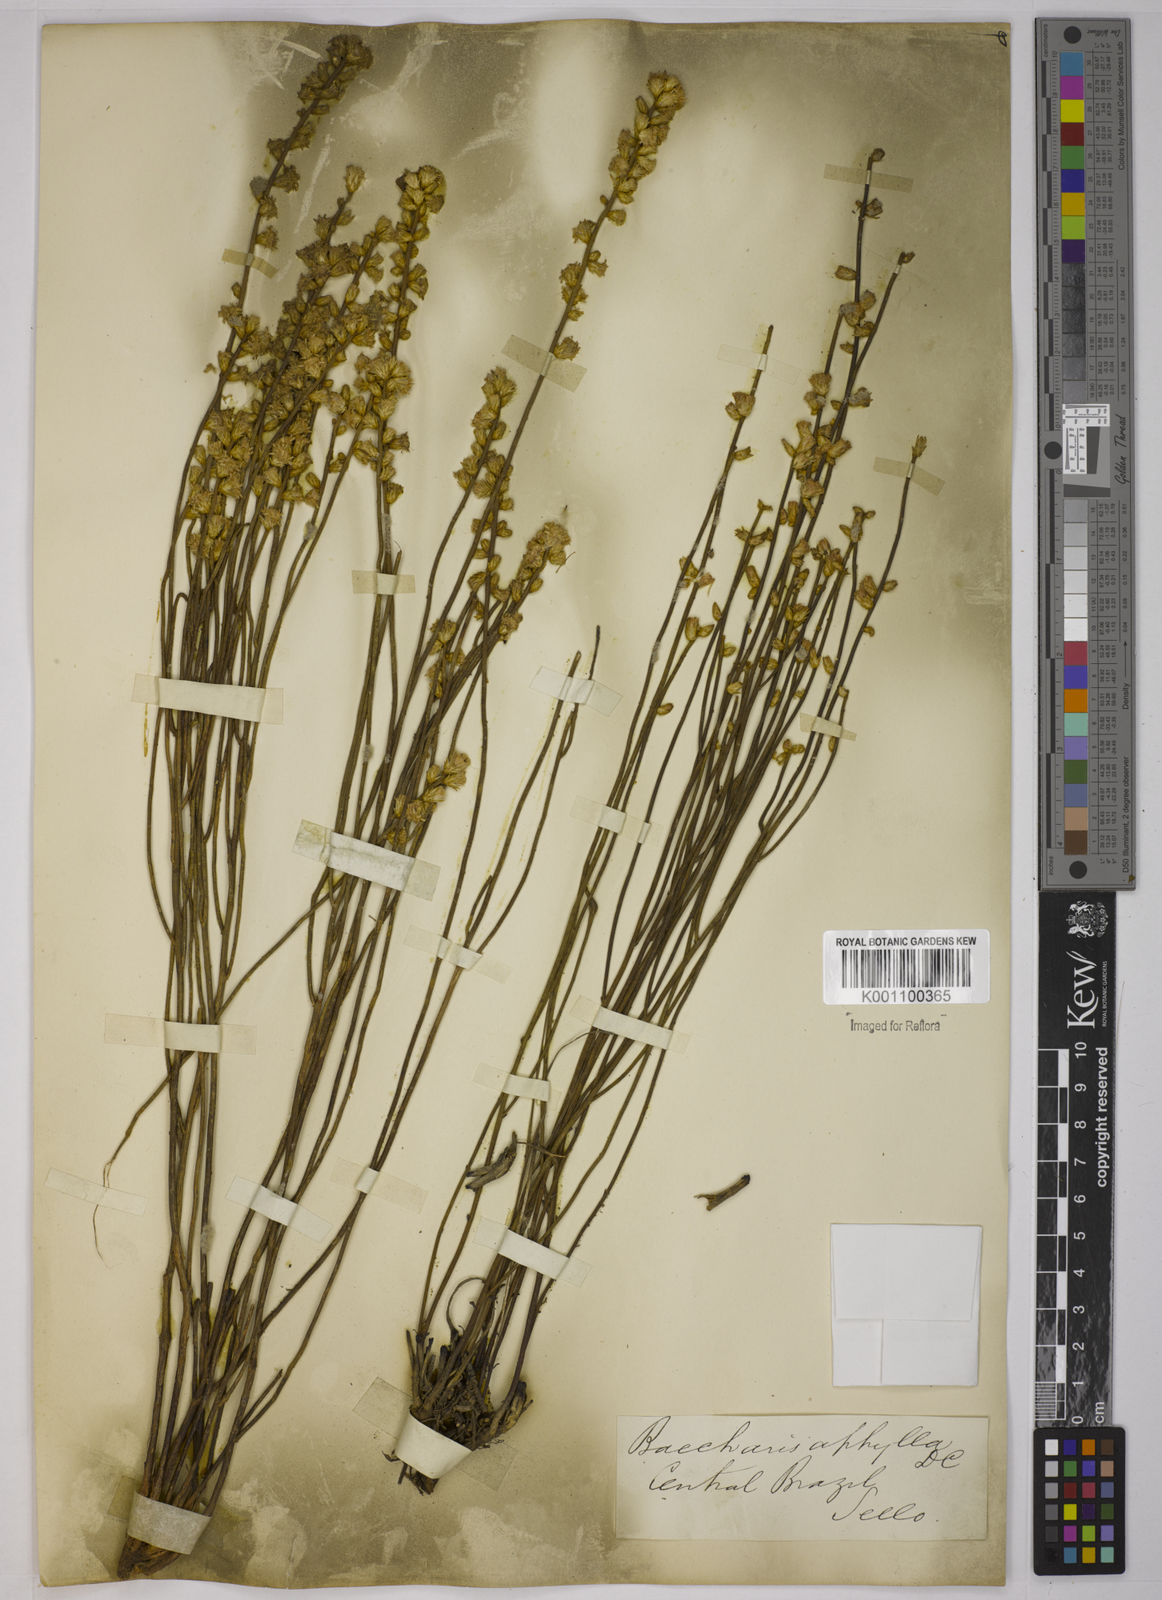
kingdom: Plantae
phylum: Tracheophyta
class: Magnoliopsida
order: Asterales
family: Asteraceae
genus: Baccharis
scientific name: Baccharis aphylla
